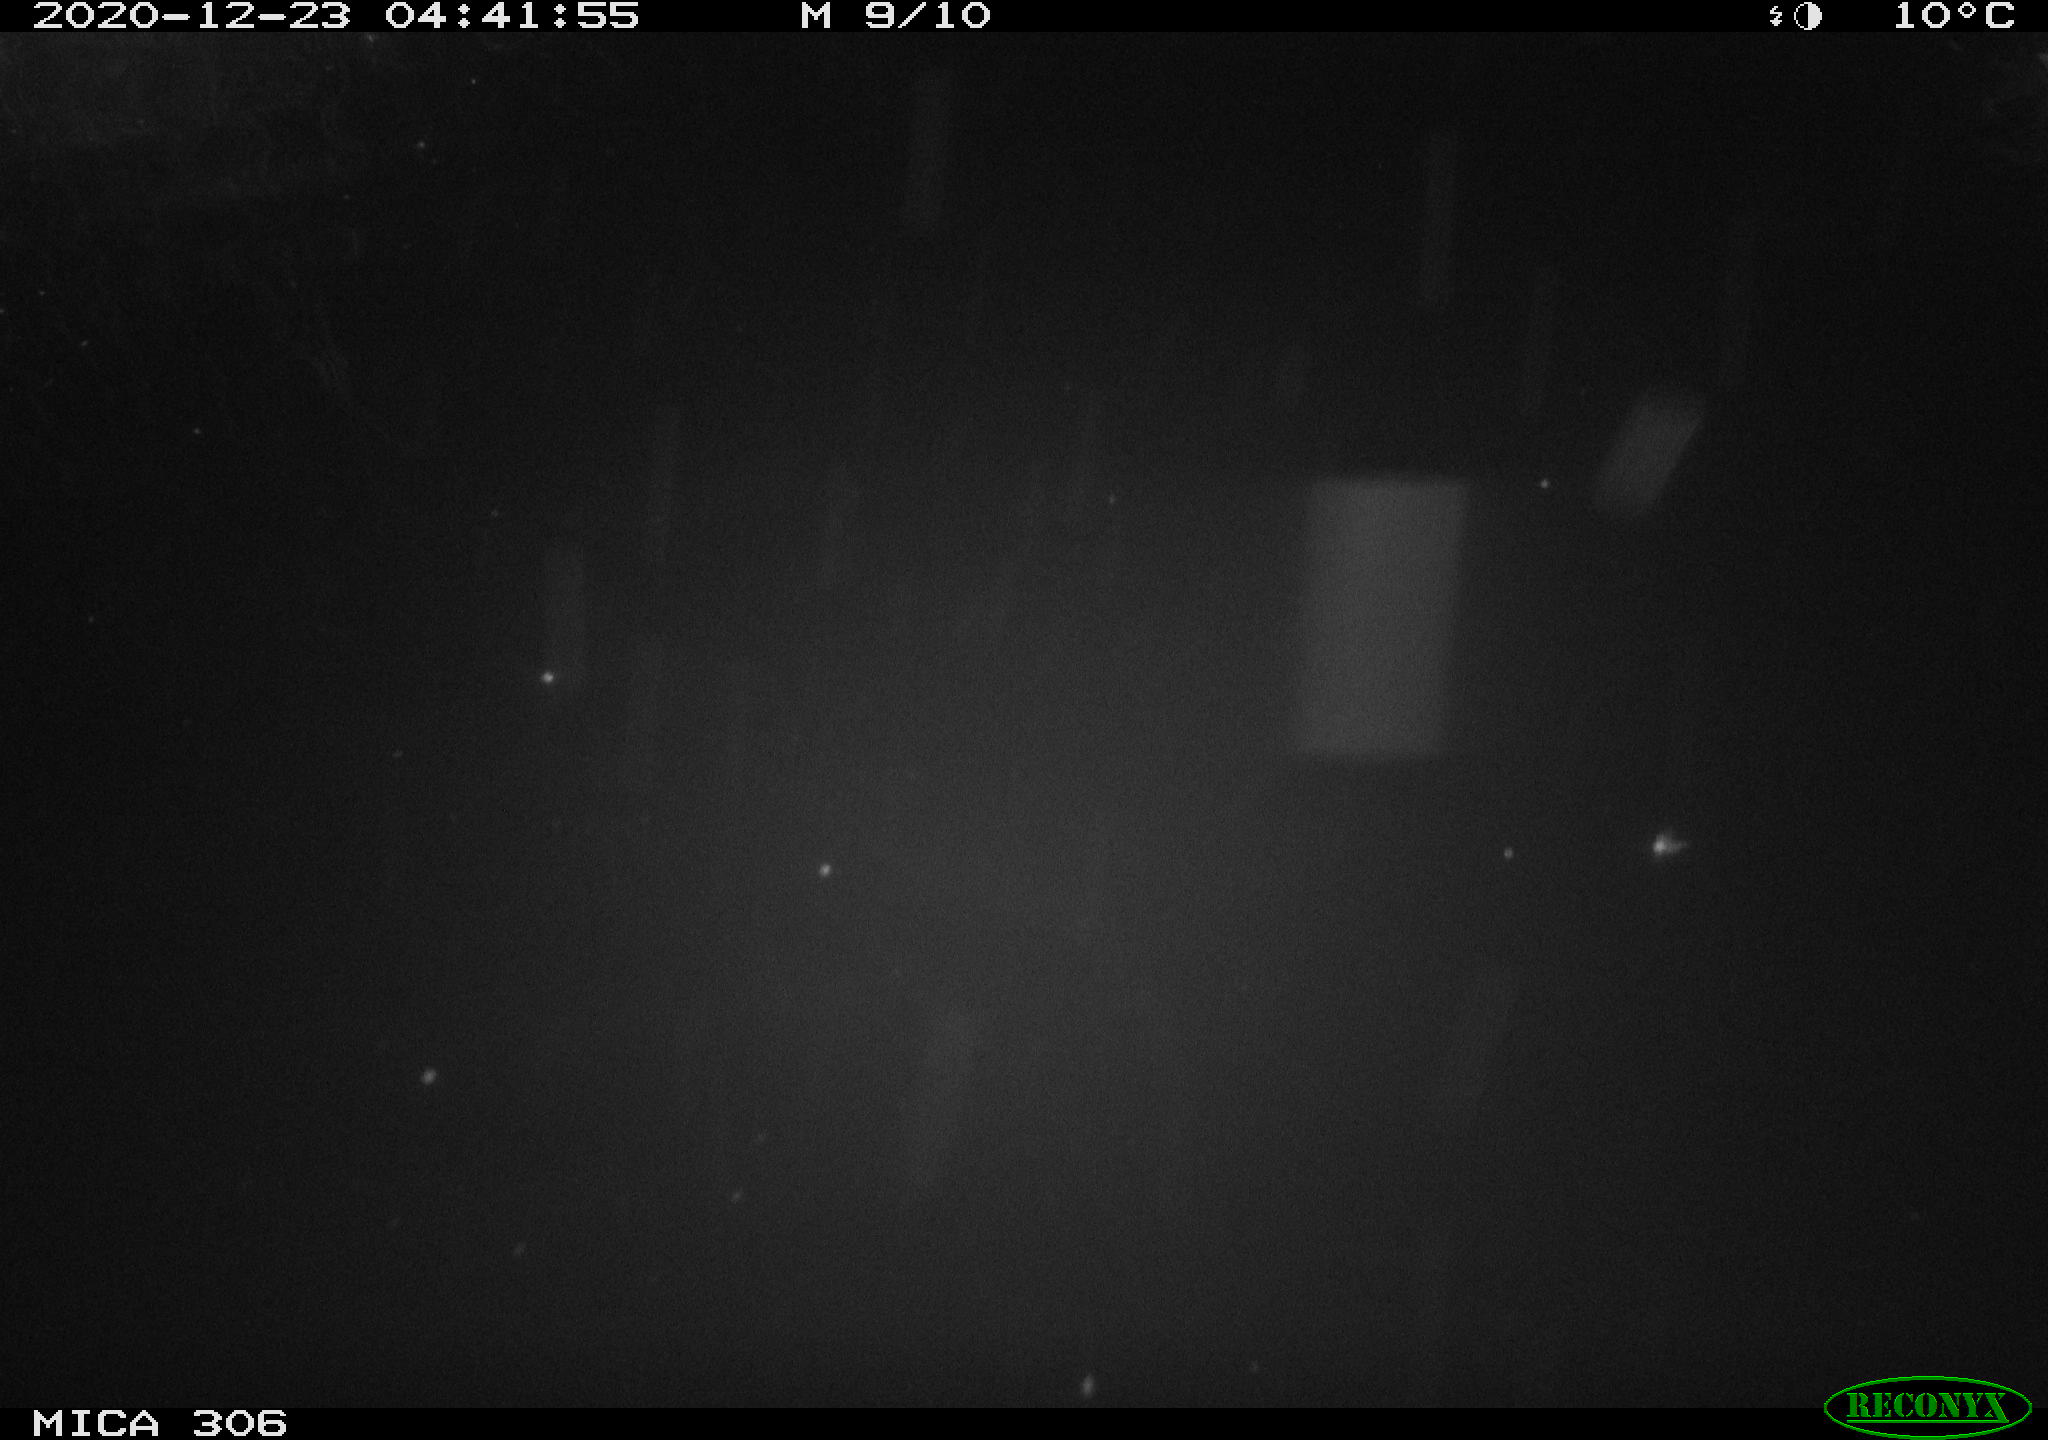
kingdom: Animalia
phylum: Chordata
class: Mammalia
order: Rodentia
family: Cricetidae
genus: Ondatra
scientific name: Ondatra zibethicus
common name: Muskrat
